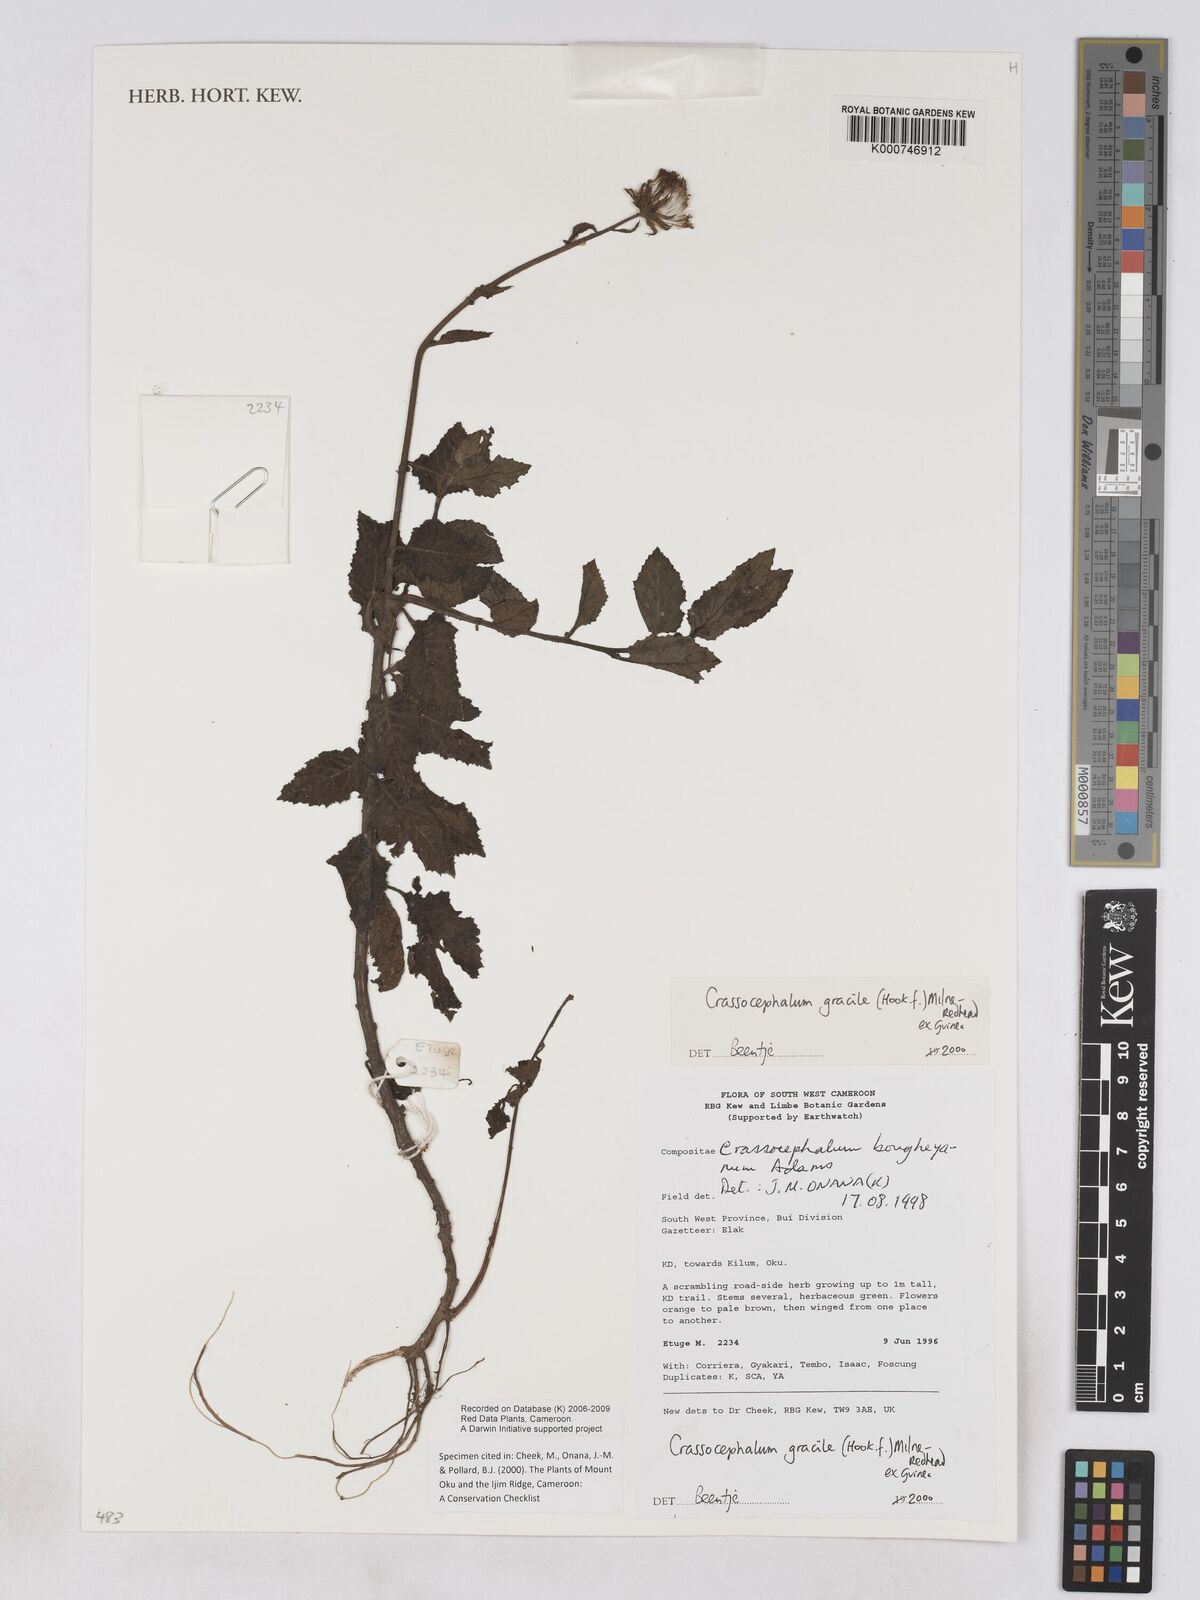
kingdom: Plantae
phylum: Tracheophyta
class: Magnoliopsida
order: Asterales
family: Asteraceae
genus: Crassocephalum
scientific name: Crassocephalum
